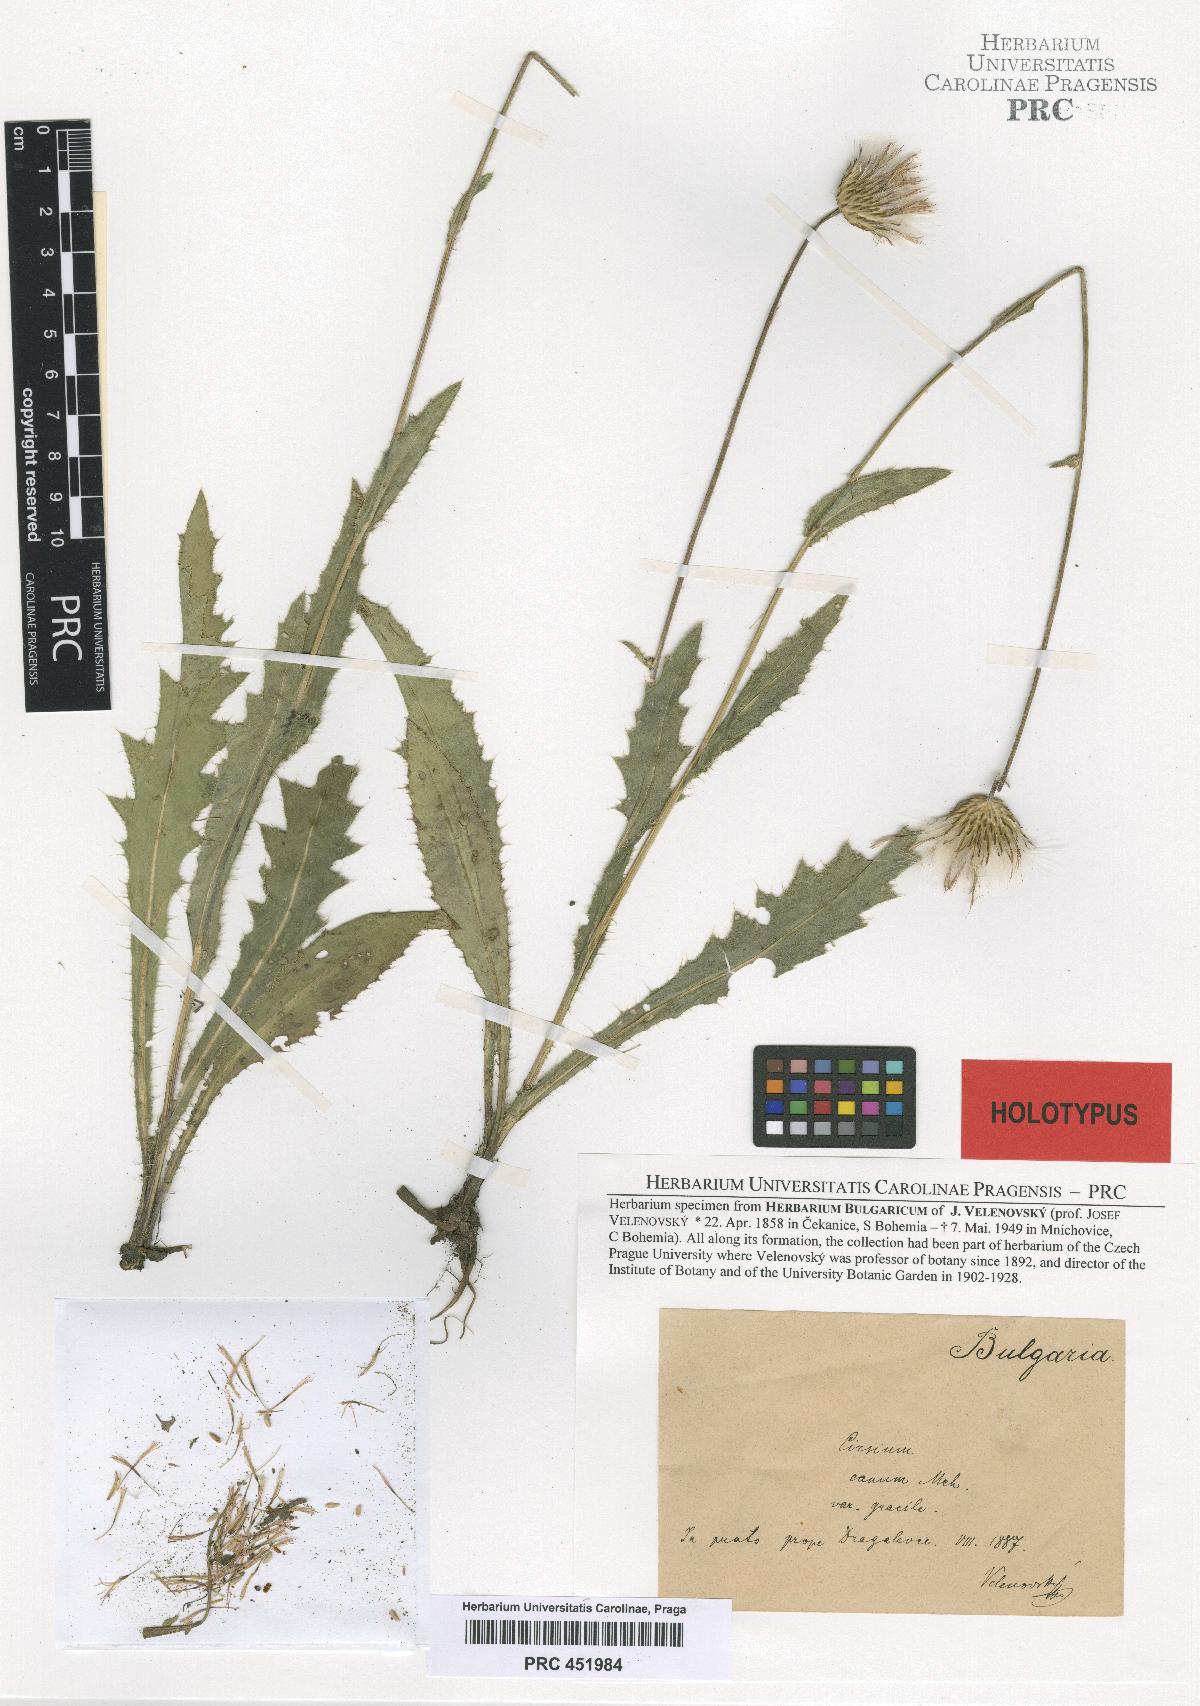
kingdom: Plantae
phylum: Tracheophyta
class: Magnoliopsida
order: Asterales
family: Asteraceae
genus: Cirsium
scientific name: Cirsium canum
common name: Queen anne's thistle
